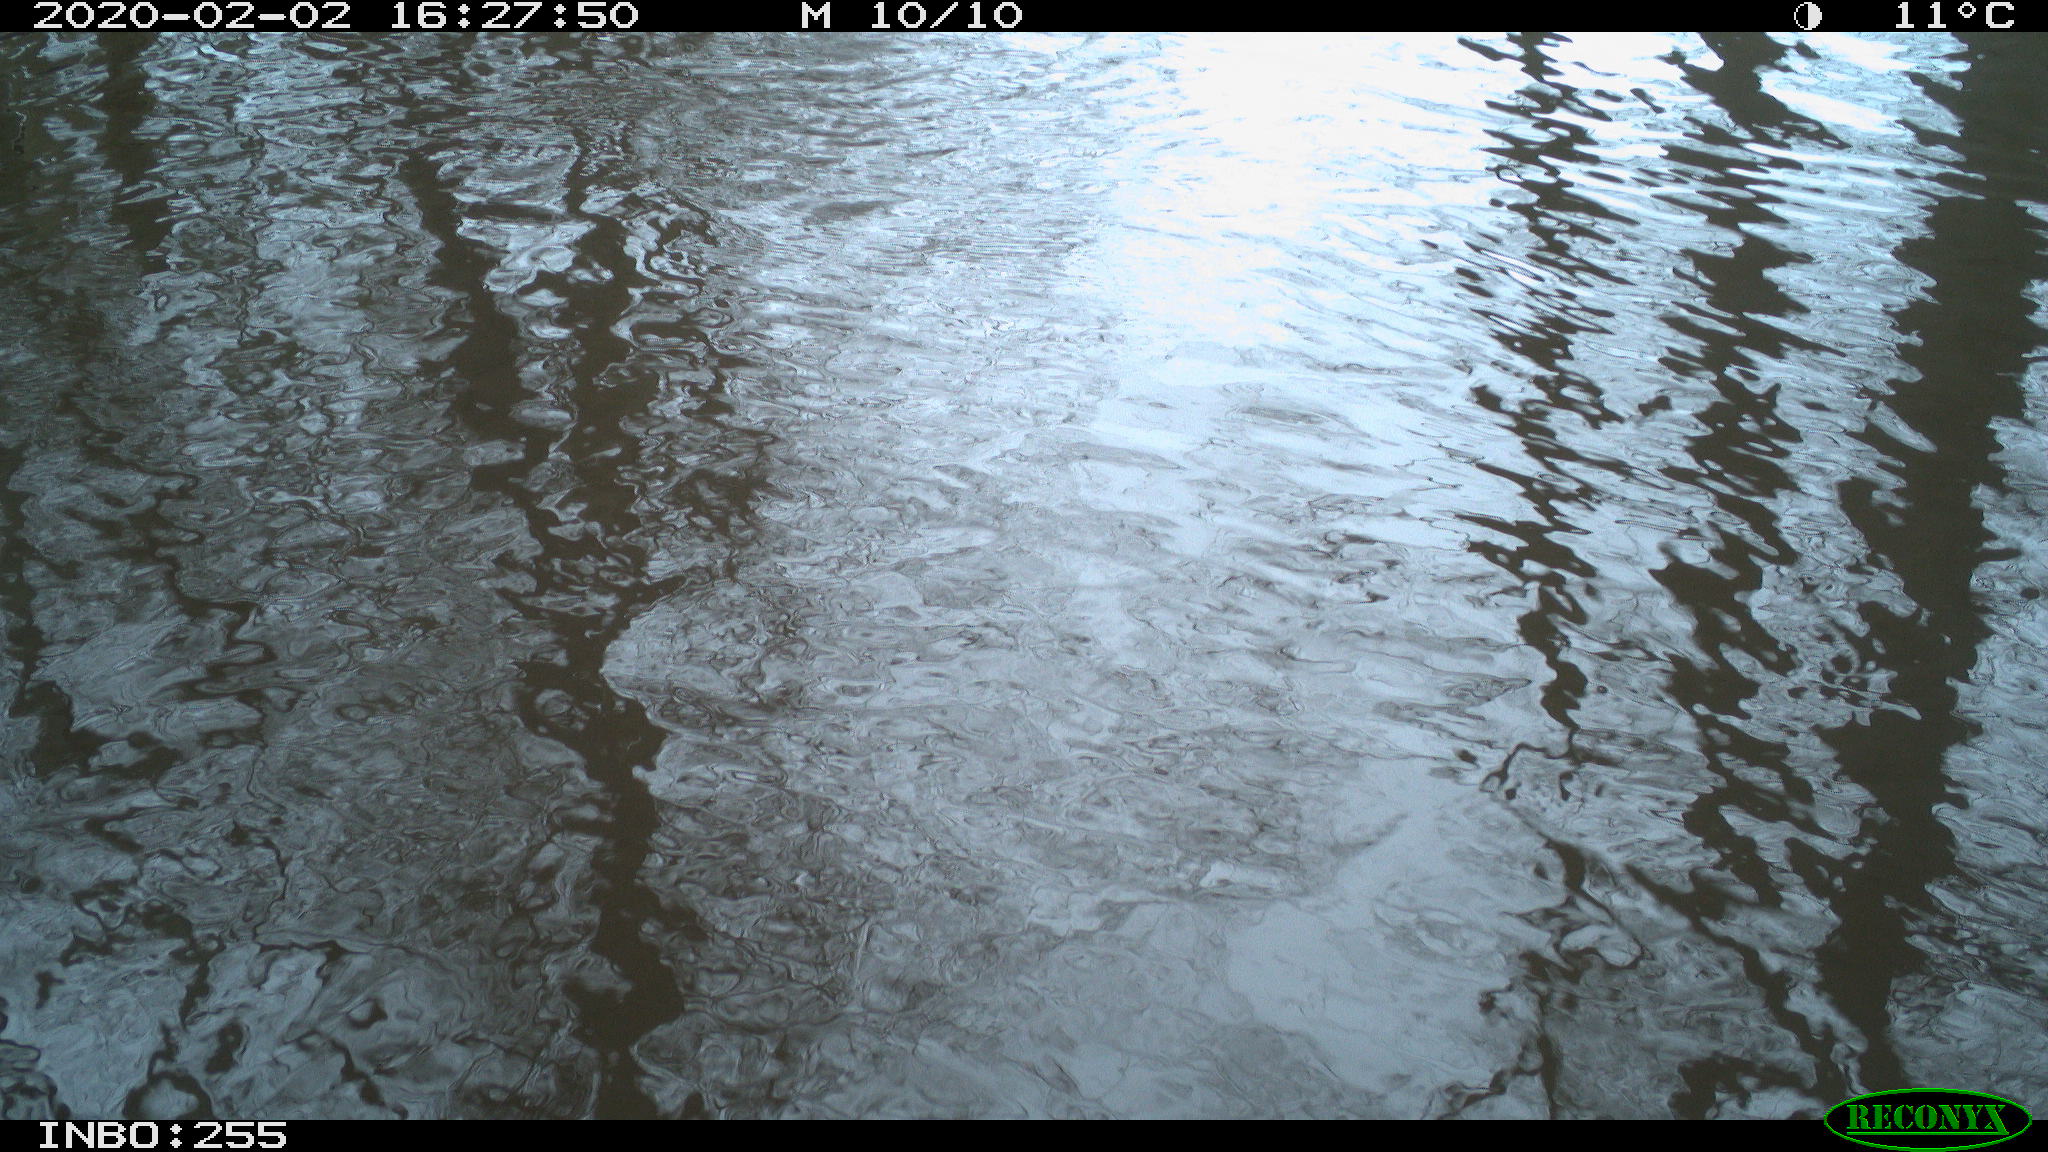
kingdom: Animalia
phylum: Chordata
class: Aves
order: Gruiformes
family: Rallidae
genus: Fulica
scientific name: Fulica atra
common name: Eurasian coot
